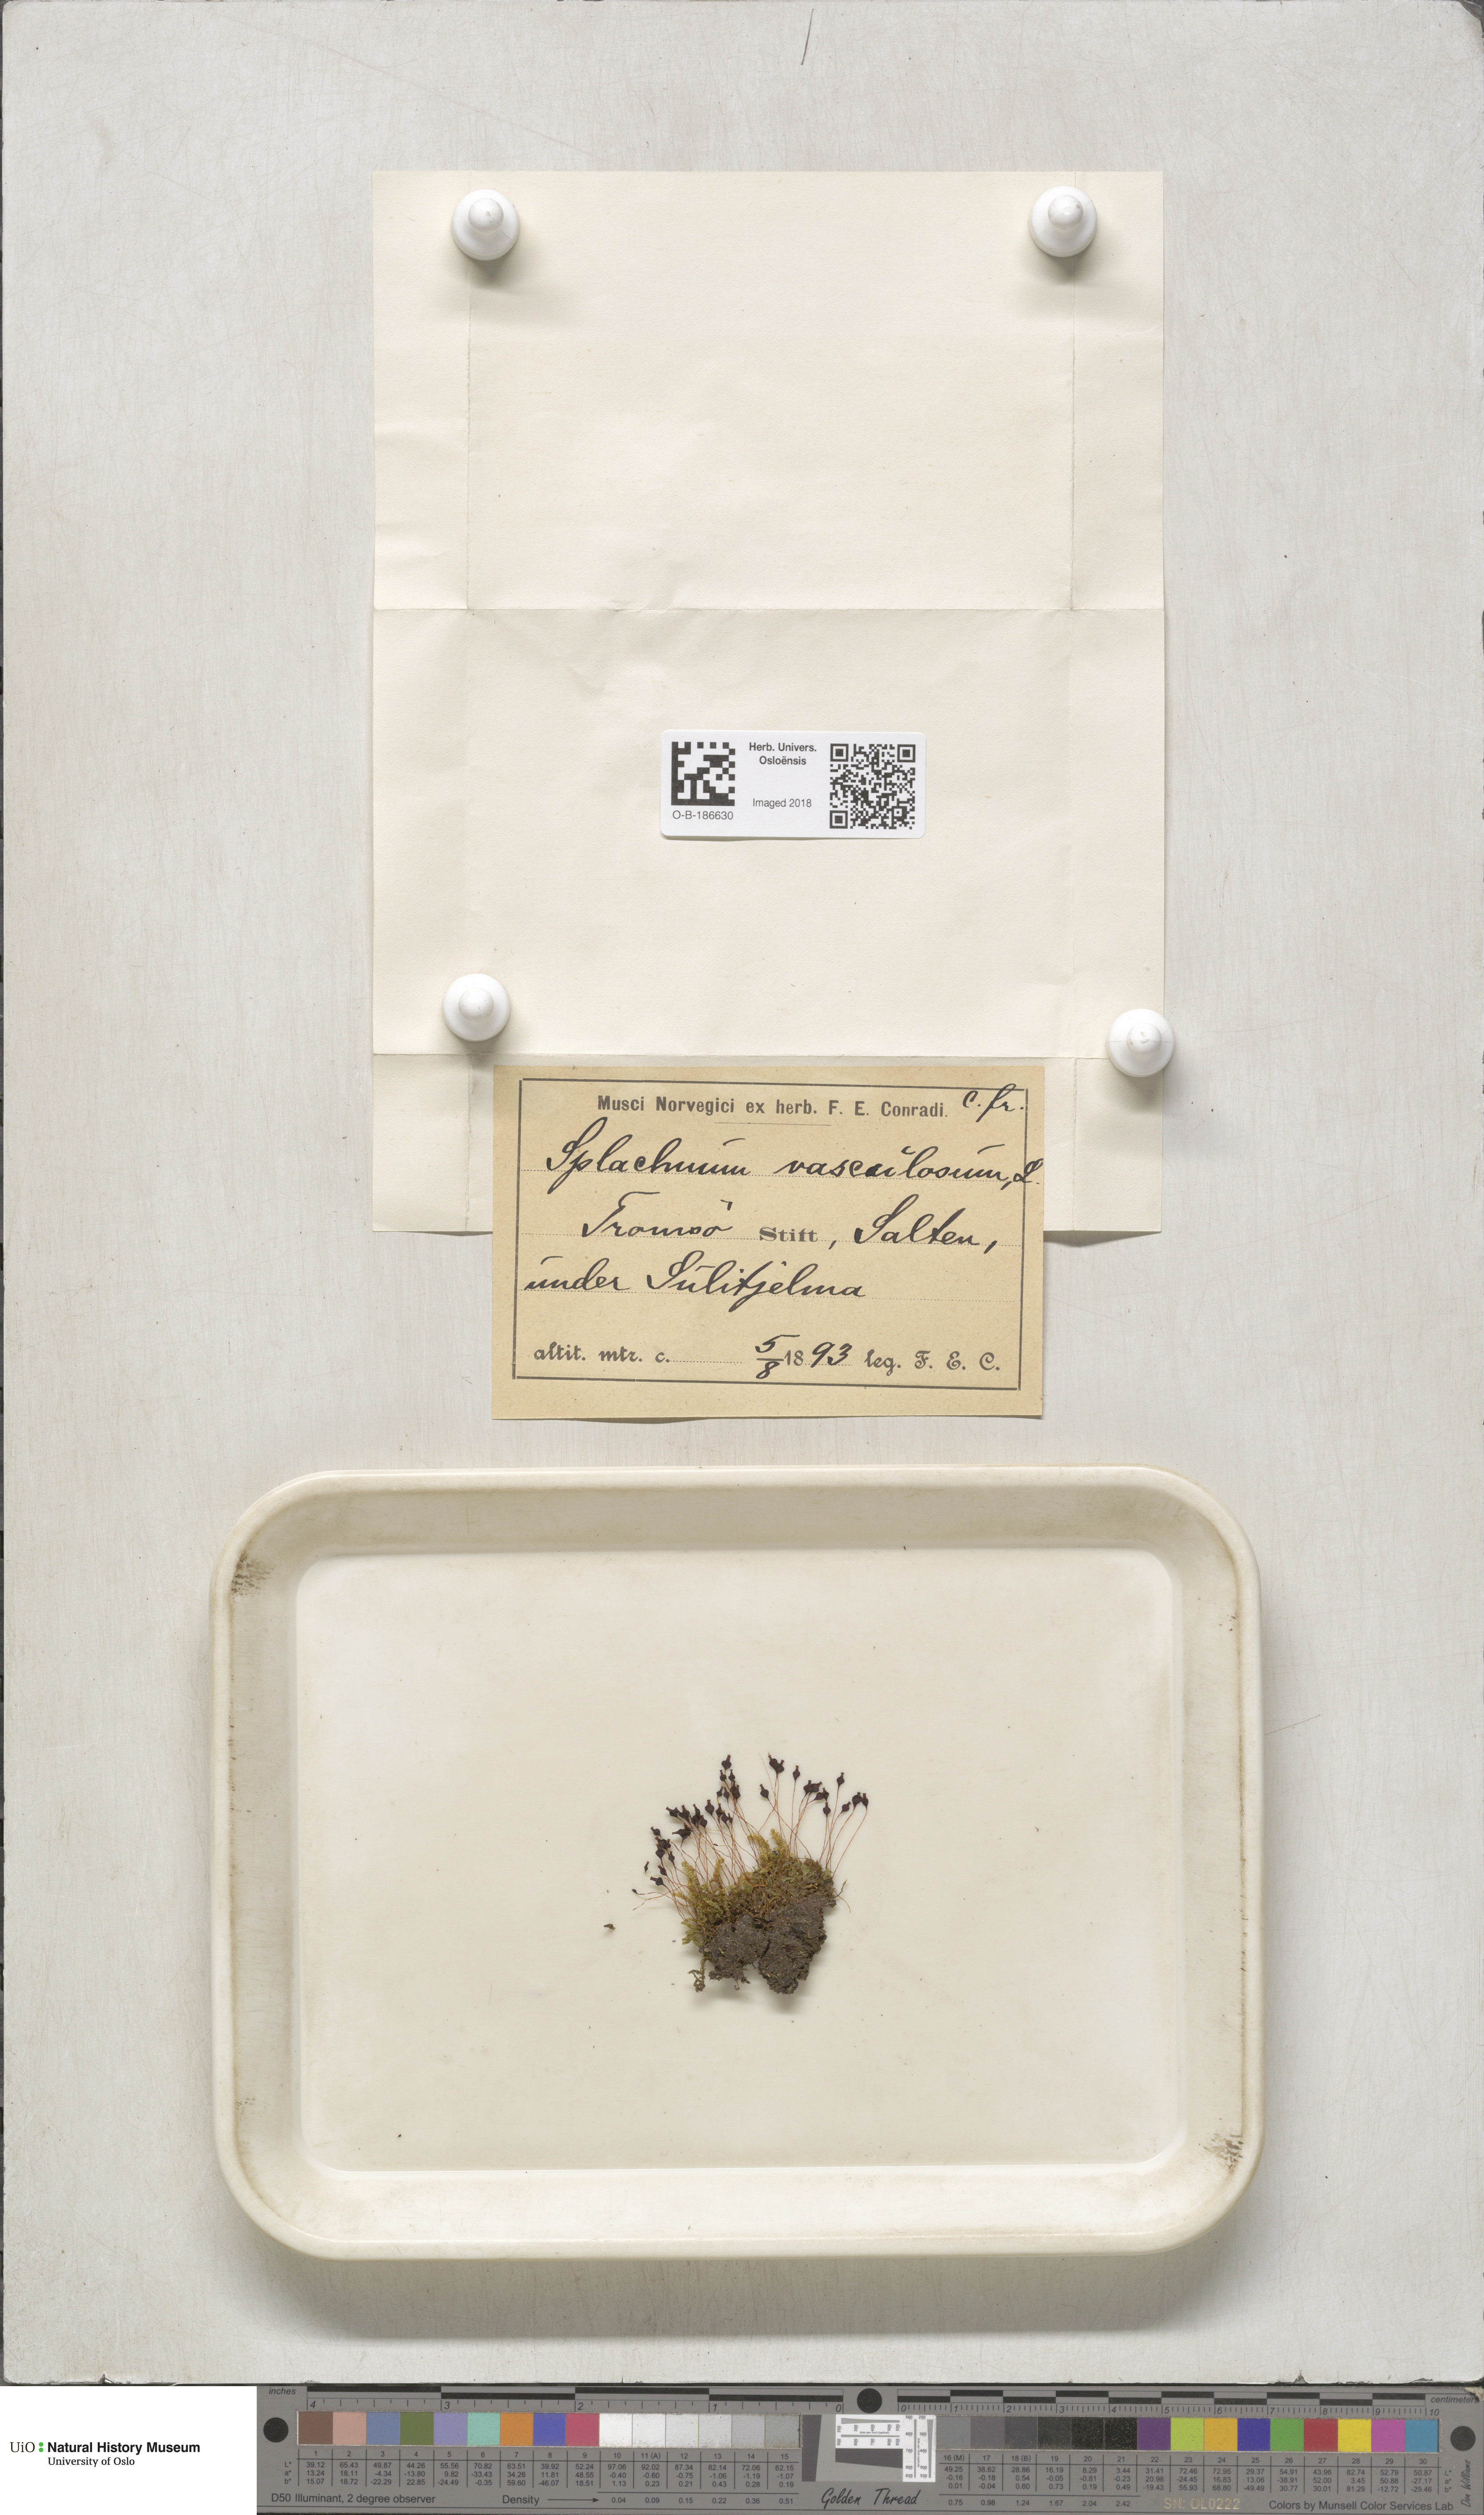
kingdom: Plantae
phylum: Bryophyta
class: Bryopsida
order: Splachnales
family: Splachnaceae
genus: Splachnum
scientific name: Splachnum vasculosum
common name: Rugged dung moss
